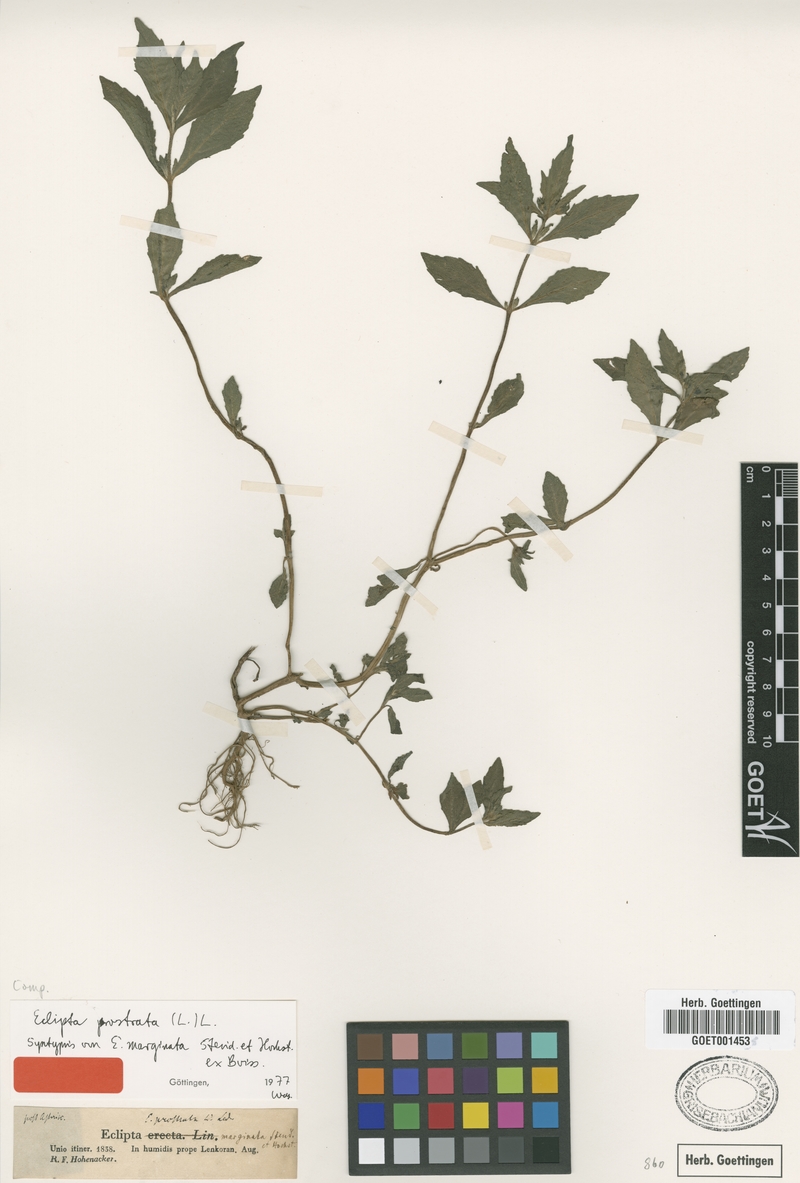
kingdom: Plantae
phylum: Tracheophyta
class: Magnoliopsida
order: Asterales
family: Asteraceae
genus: Eclipta
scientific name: Eclipta prostrata
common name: False daisy
